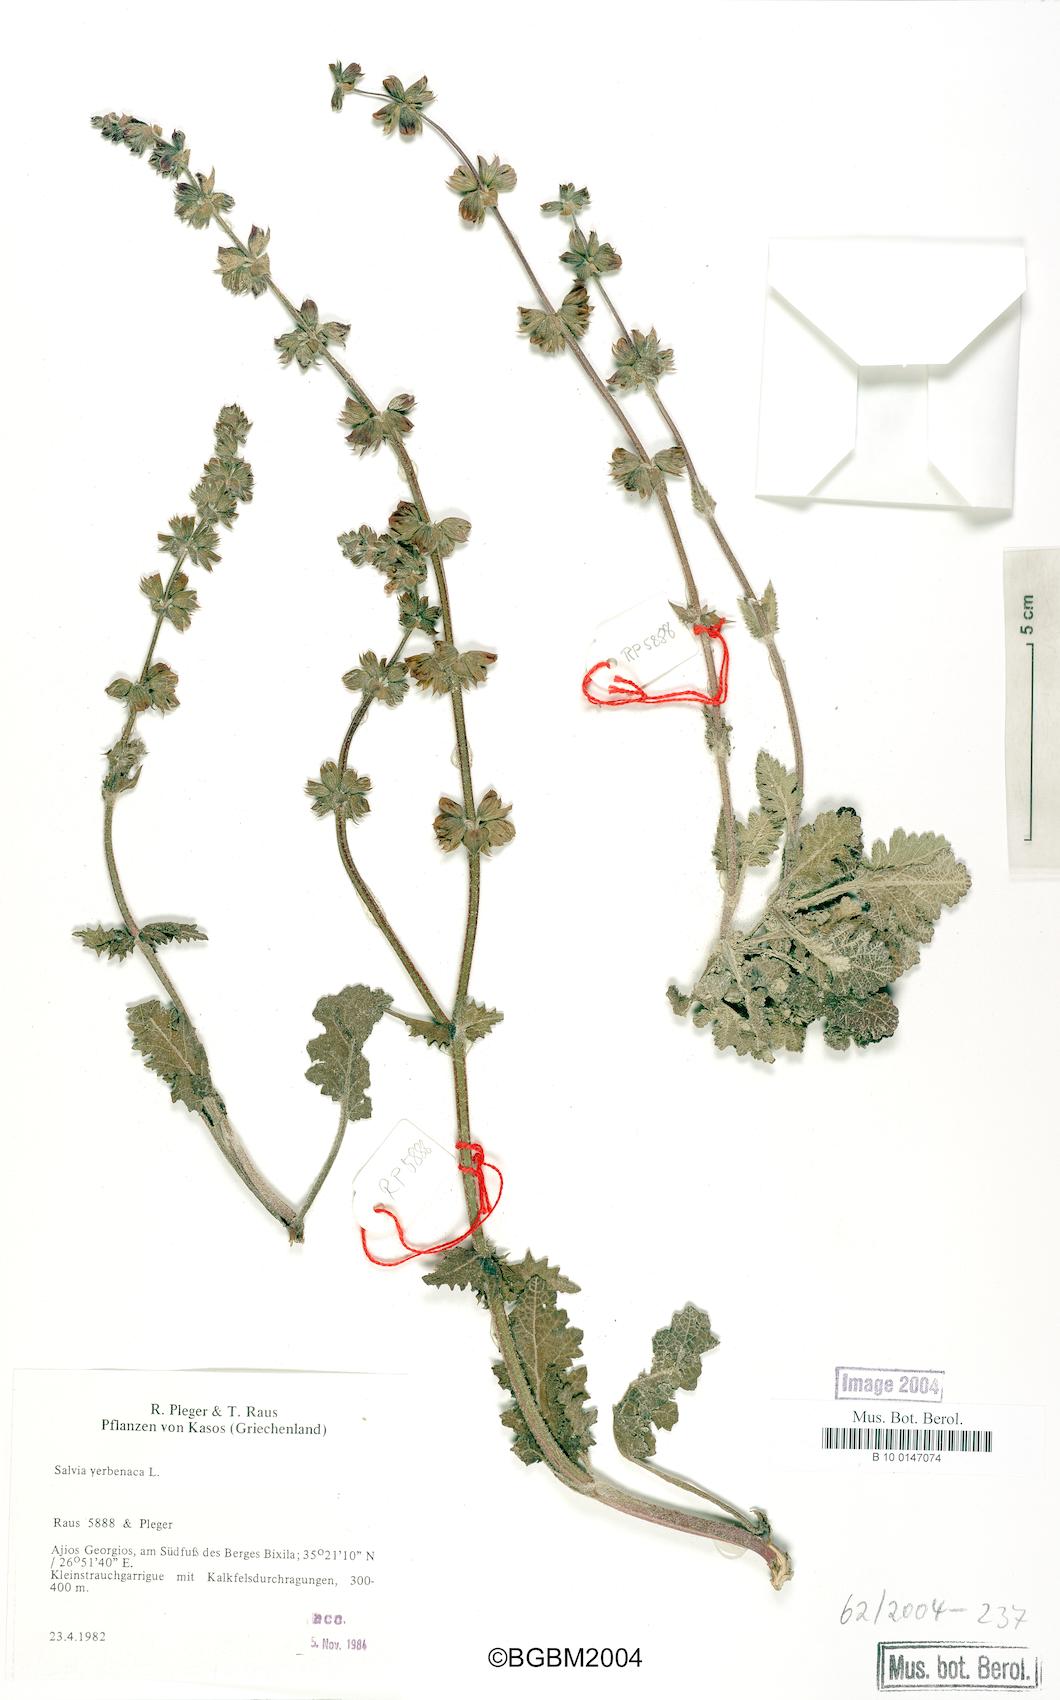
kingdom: Plantae
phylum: Tracheophyta
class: Magnoliopsida
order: Lamiales
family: Lamiaceae
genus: Salvia
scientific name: Salvia verbenaca
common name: Wild clary
